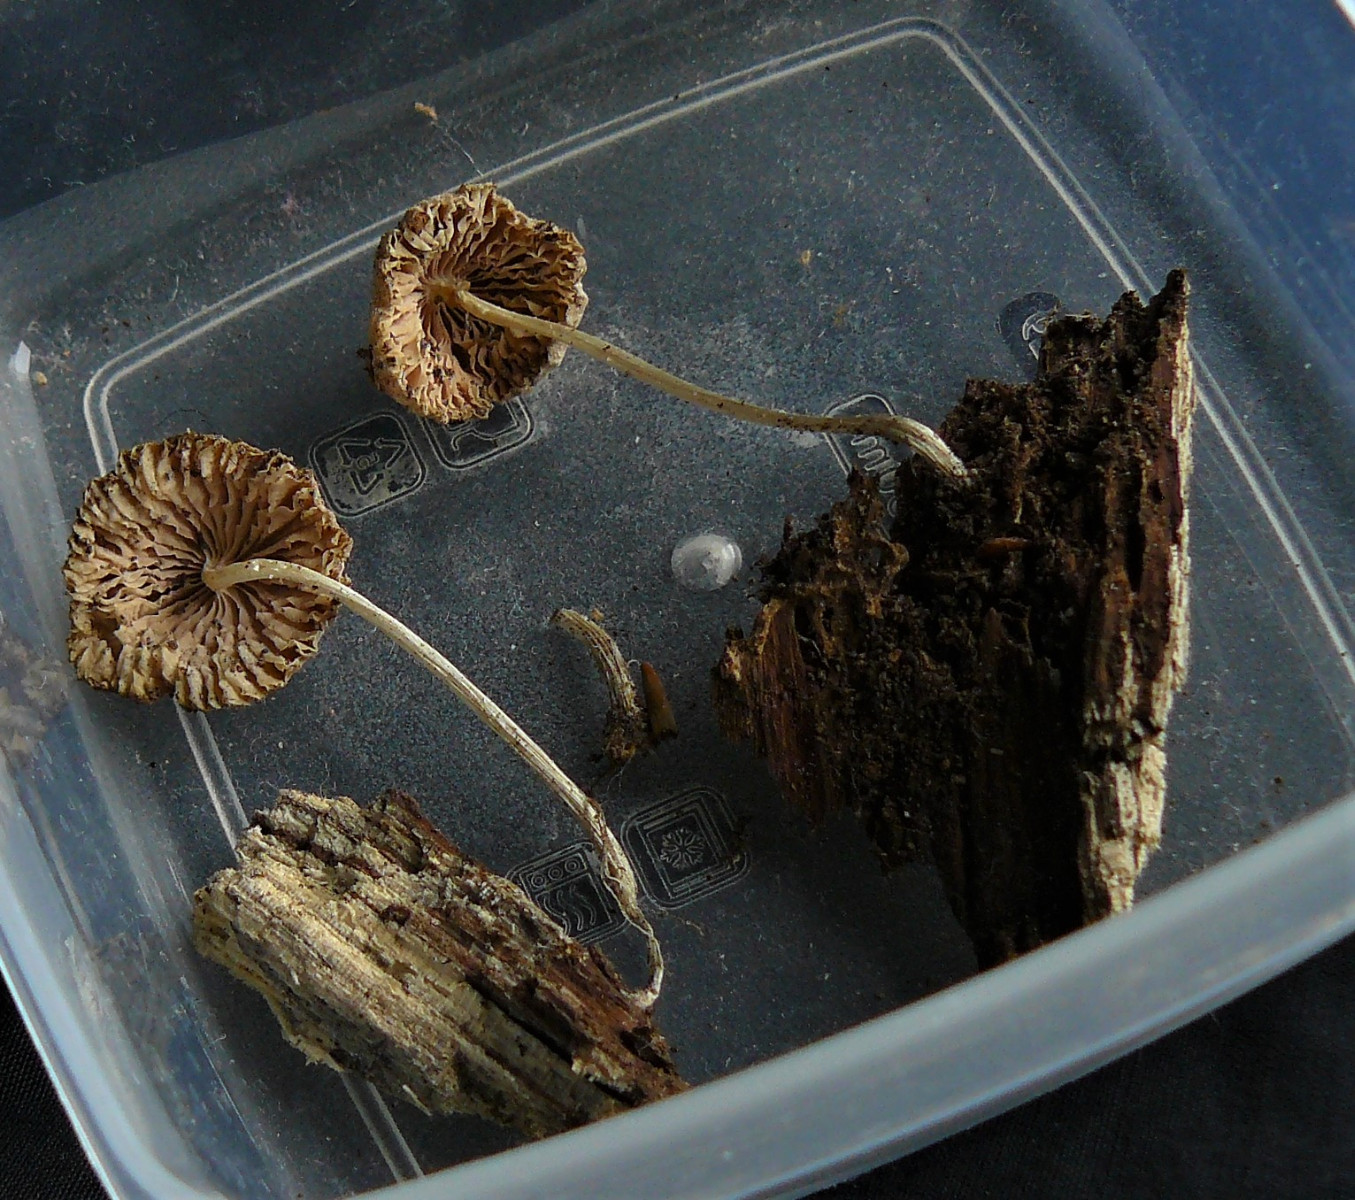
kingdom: Fungi
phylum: Basidiomycota
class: Agaricomycetes
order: Agaricales
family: Physalacriaceae
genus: Hymenopellis
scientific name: Hymenopellis radicata
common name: almindelig pælerodshat
